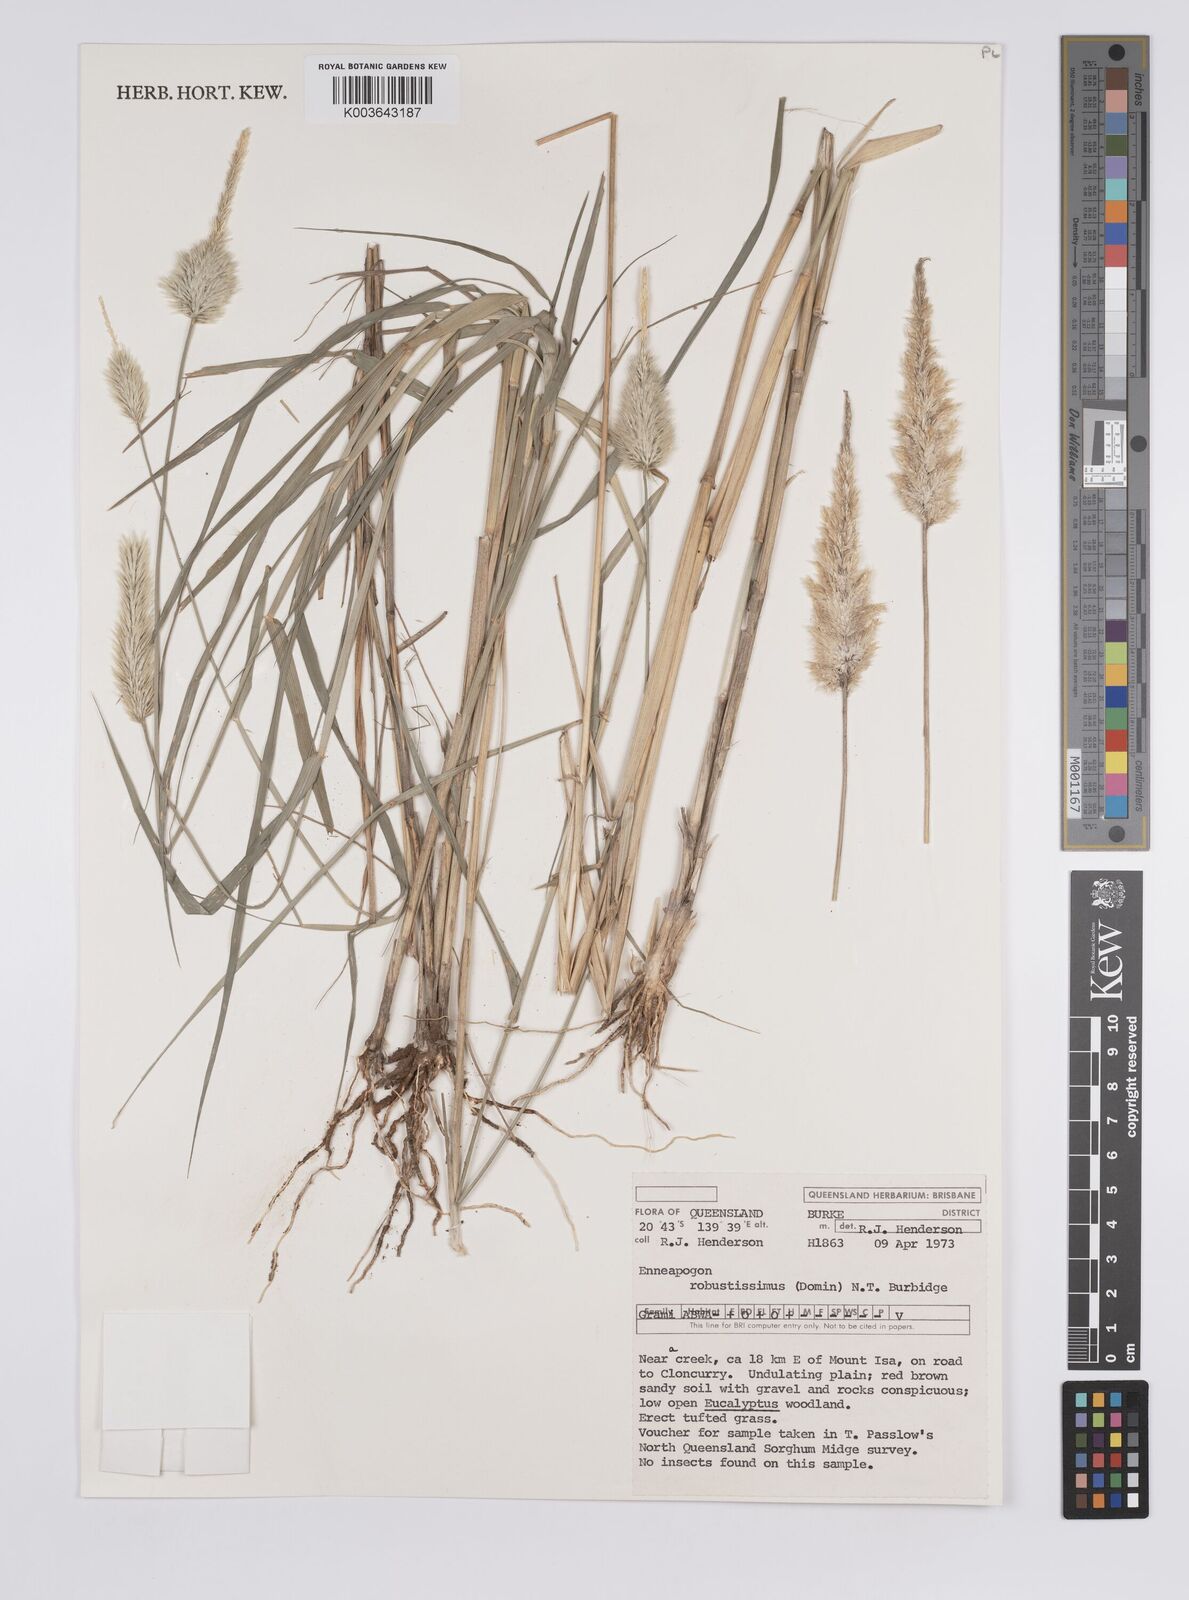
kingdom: Plantae
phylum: Tracheophyta
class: Liliopsida
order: Poales
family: Poaceae
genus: Enneapogon
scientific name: Enneapogon robustissimus
